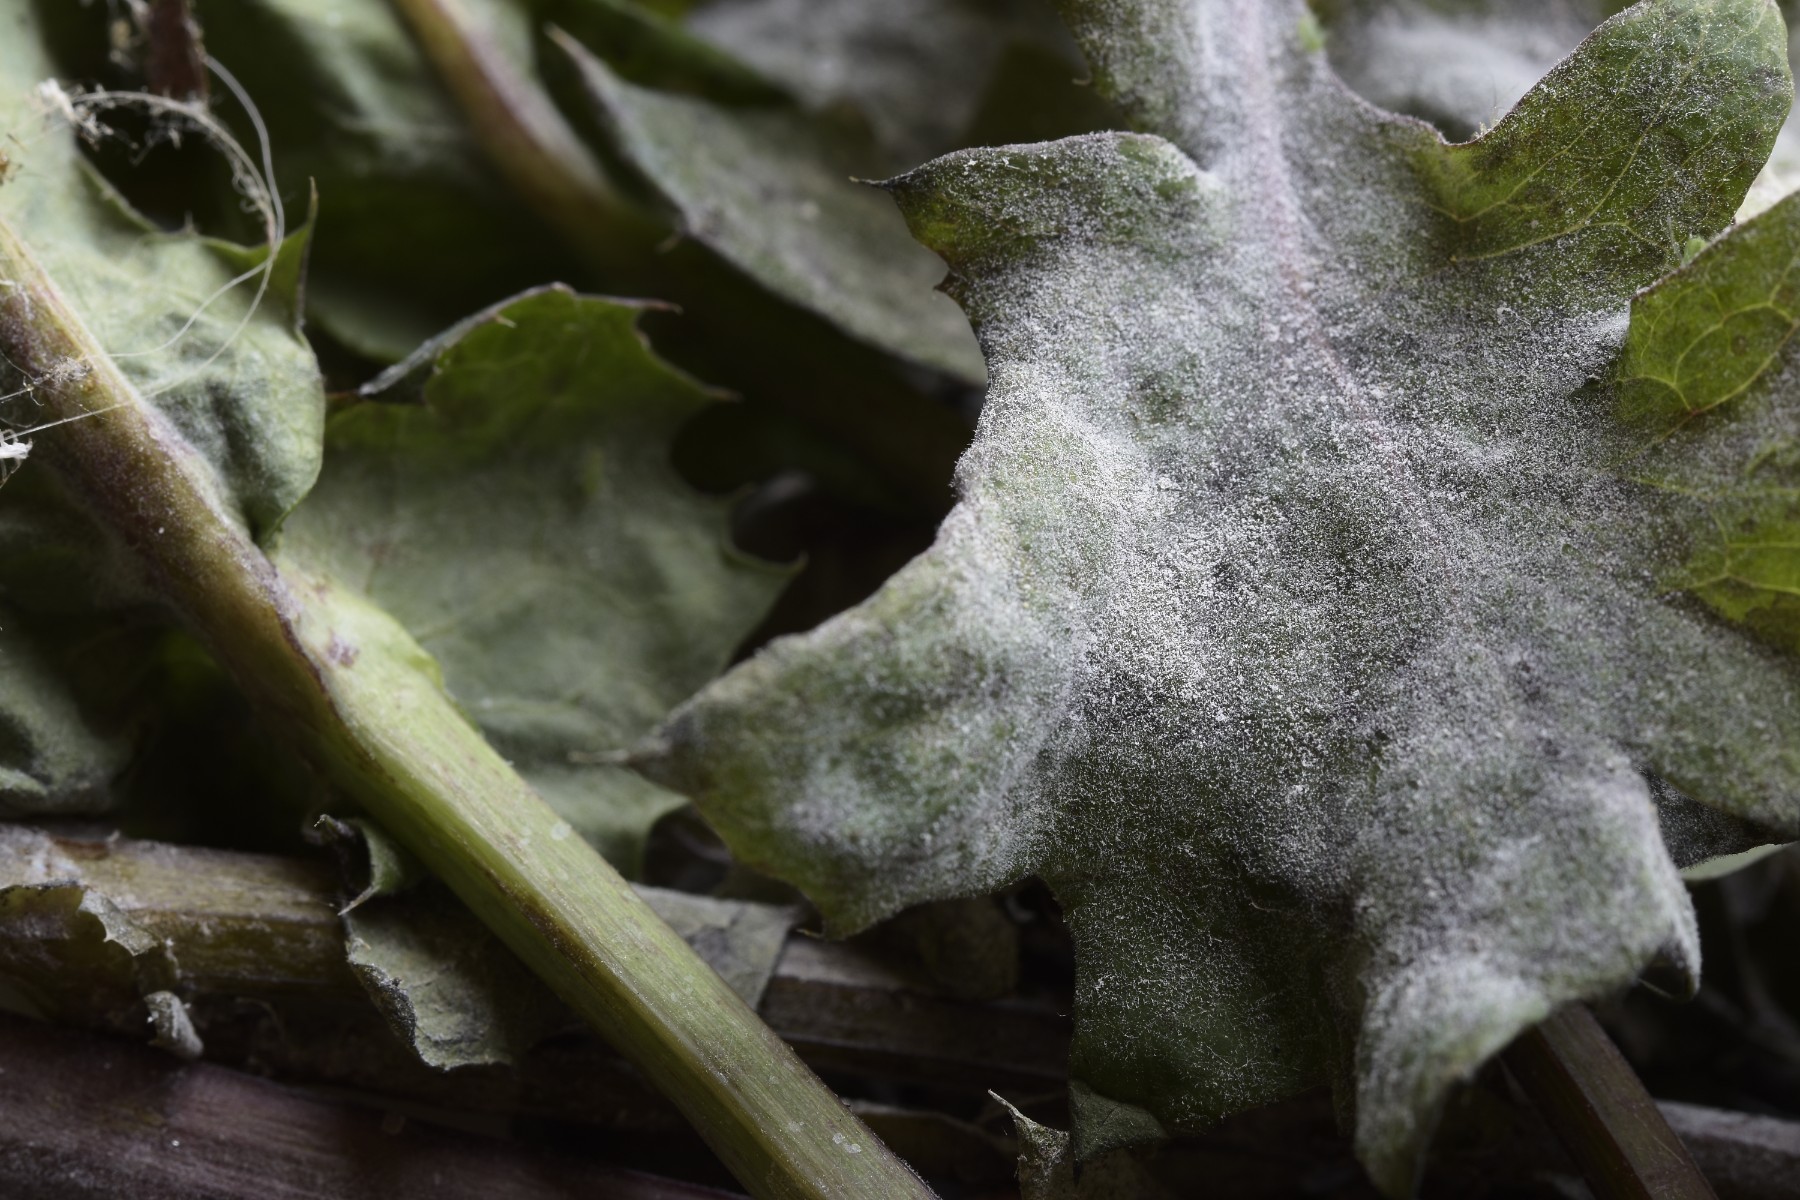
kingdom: Fungi
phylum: Ascomycota
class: Leotiomycetes
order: Helotiales
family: Erysiphaceae
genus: Golovinomyces
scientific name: Golovinomyces sonchicola
